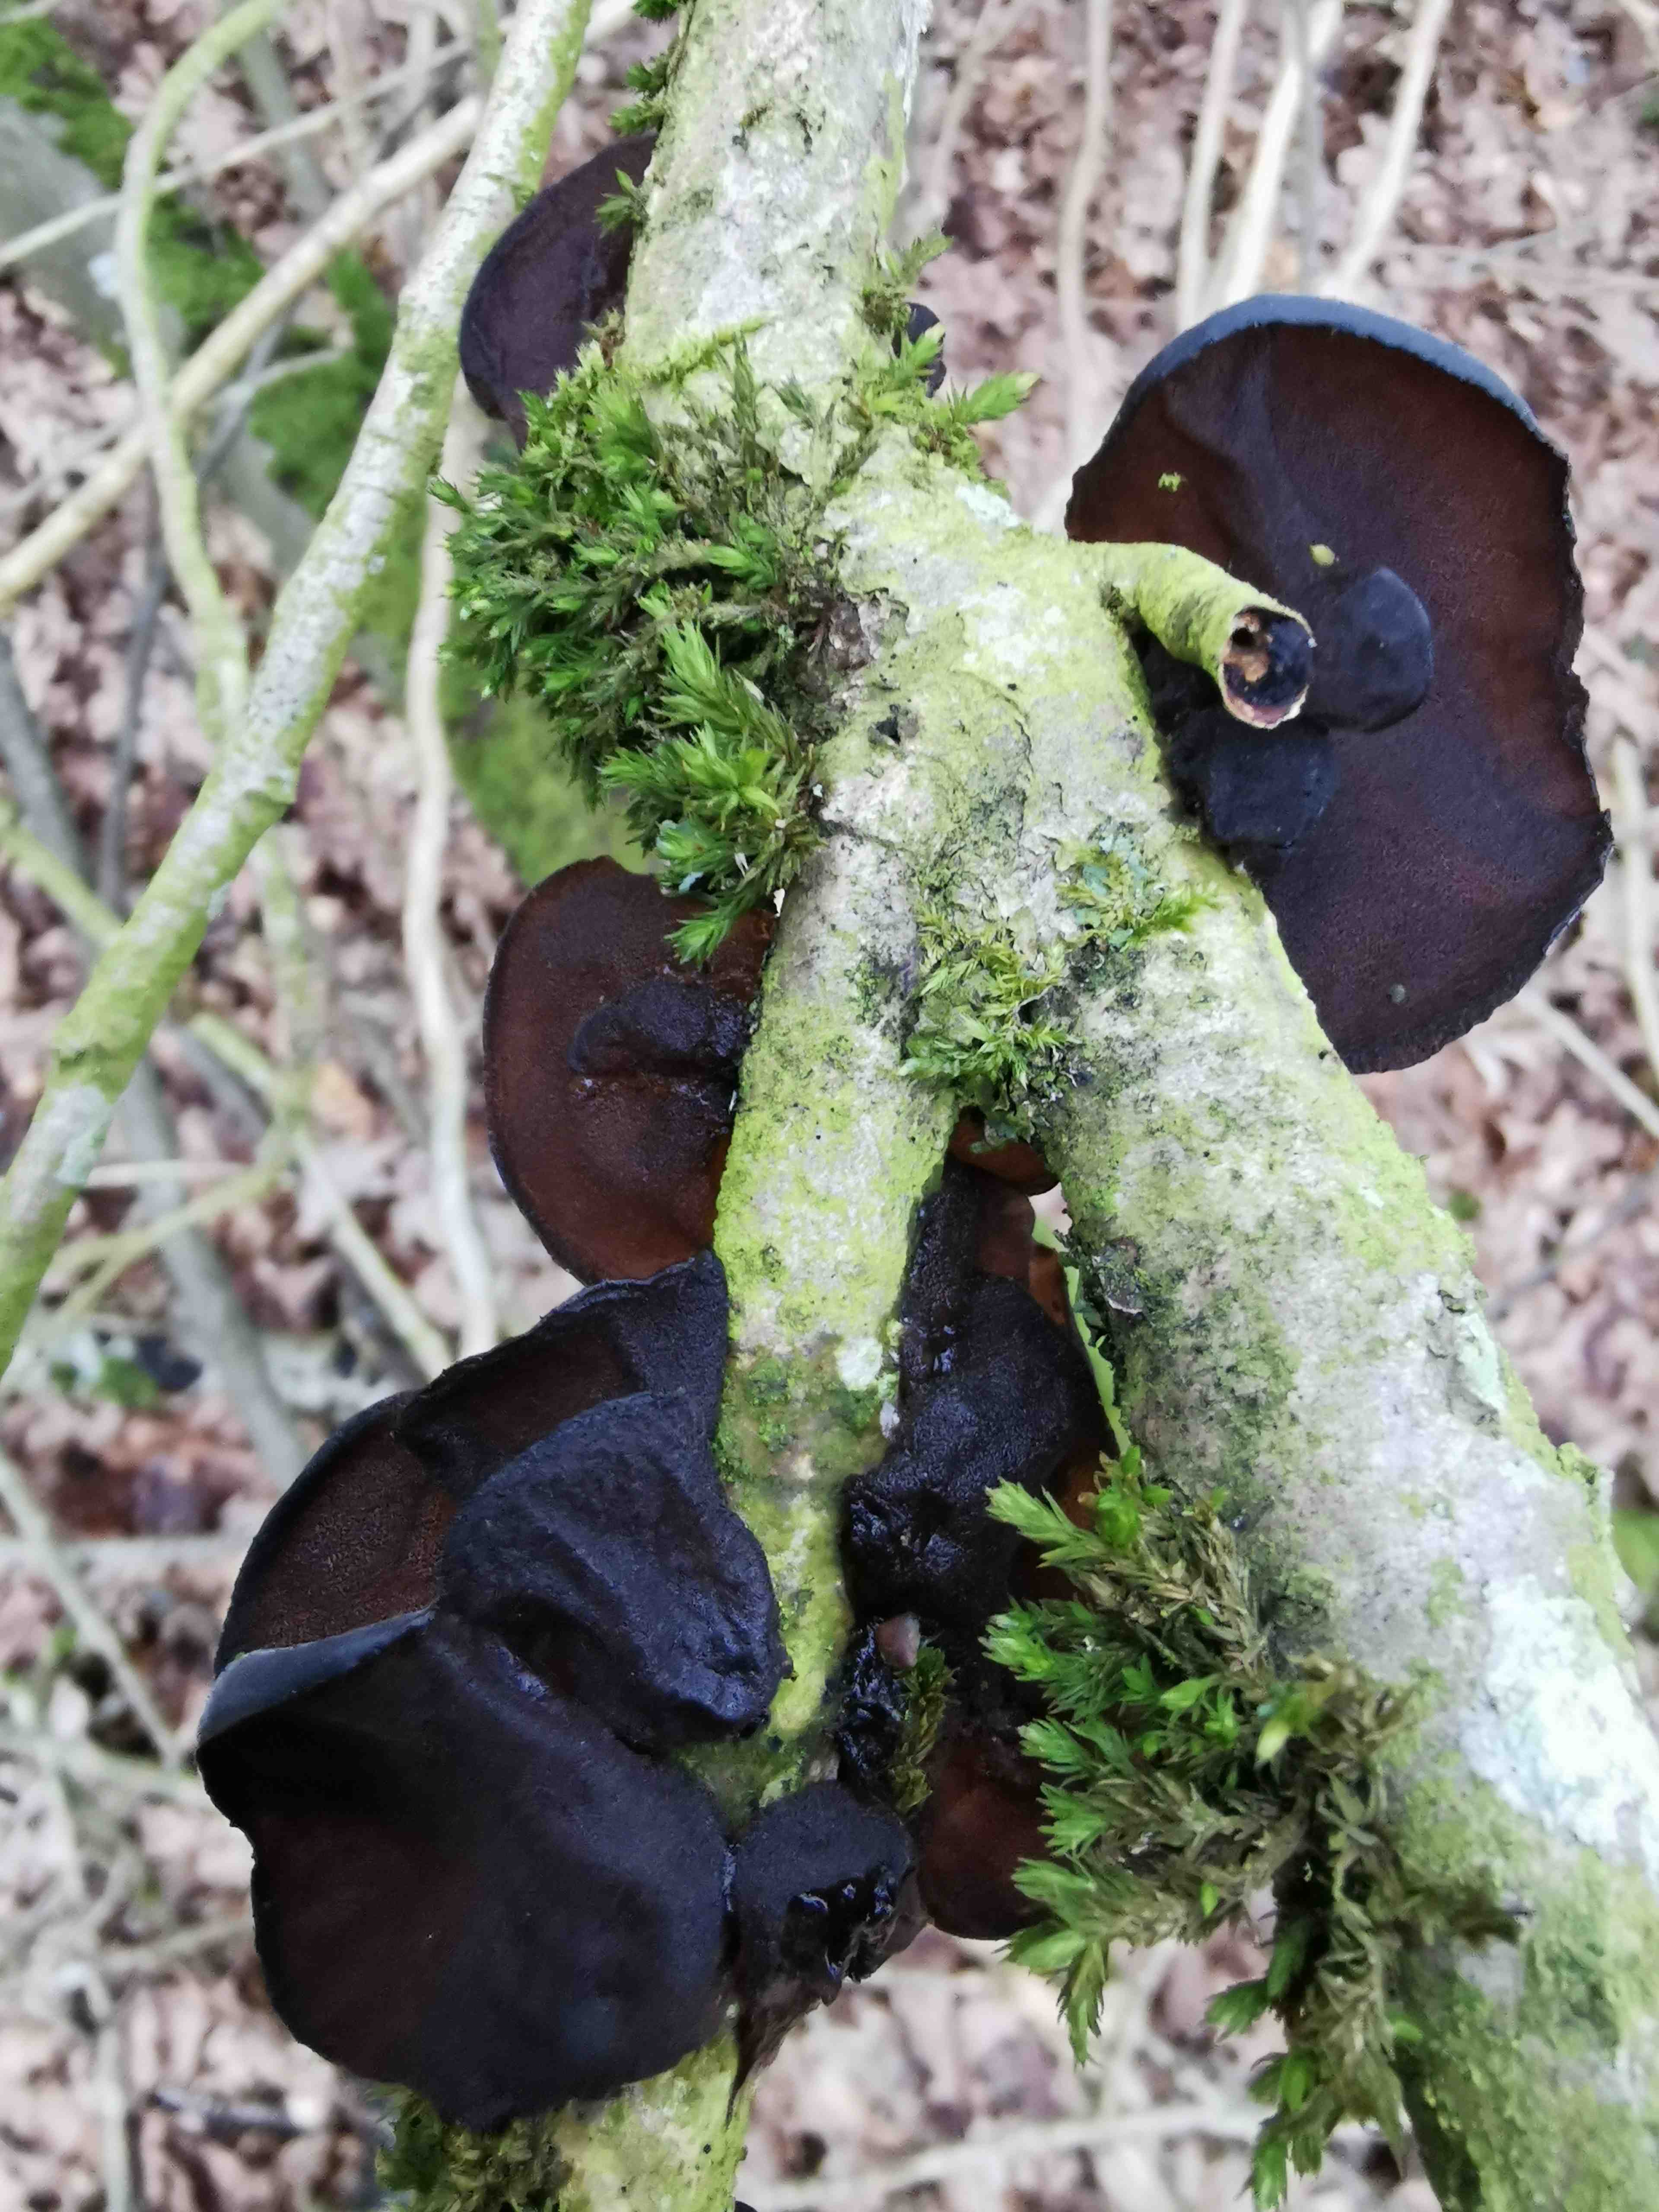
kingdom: Fungi
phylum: Basidiomycota
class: Agaricomycetes
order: Auriculariales
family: Auriculariaceae
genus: Exidia
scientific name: Exidia glandulosa
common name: ege-bævretop
